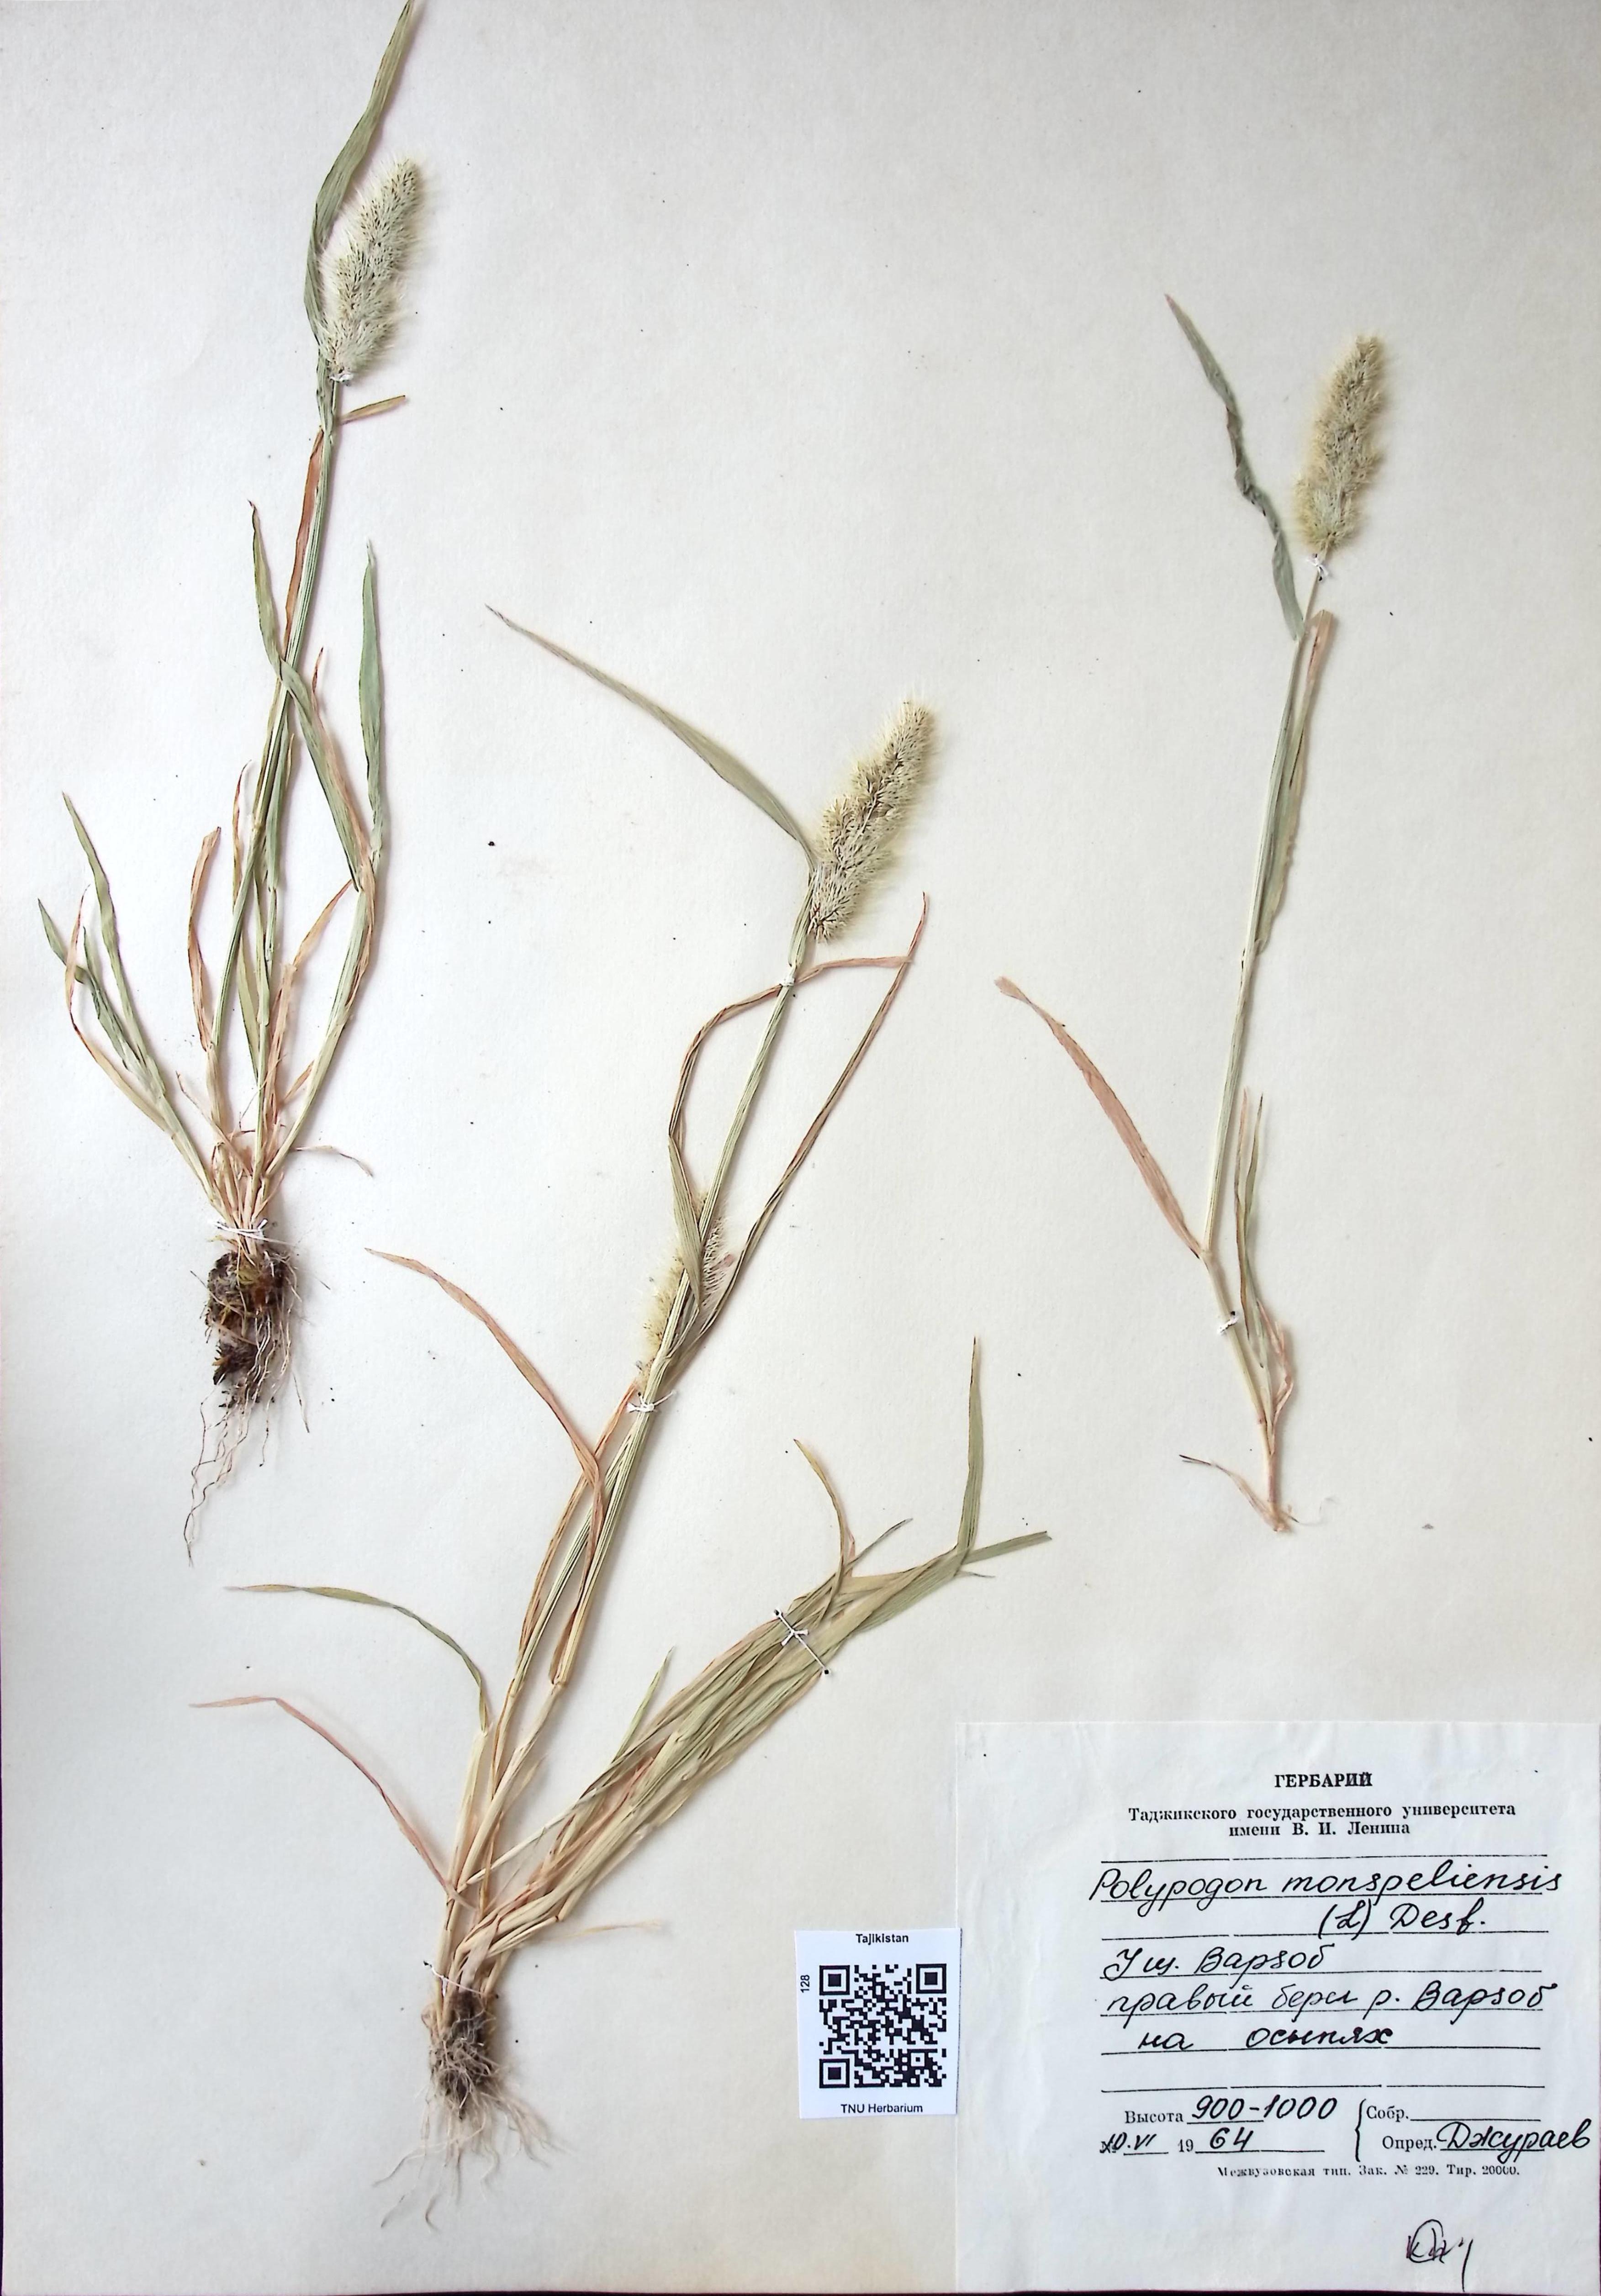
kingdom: Plantae
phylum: Tracheophyta
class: Liliopsida
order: Poales
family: Poaceae
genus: Polypogon
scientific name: Polypogon monspeliensis
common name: Annual rabbitsfoot grass
